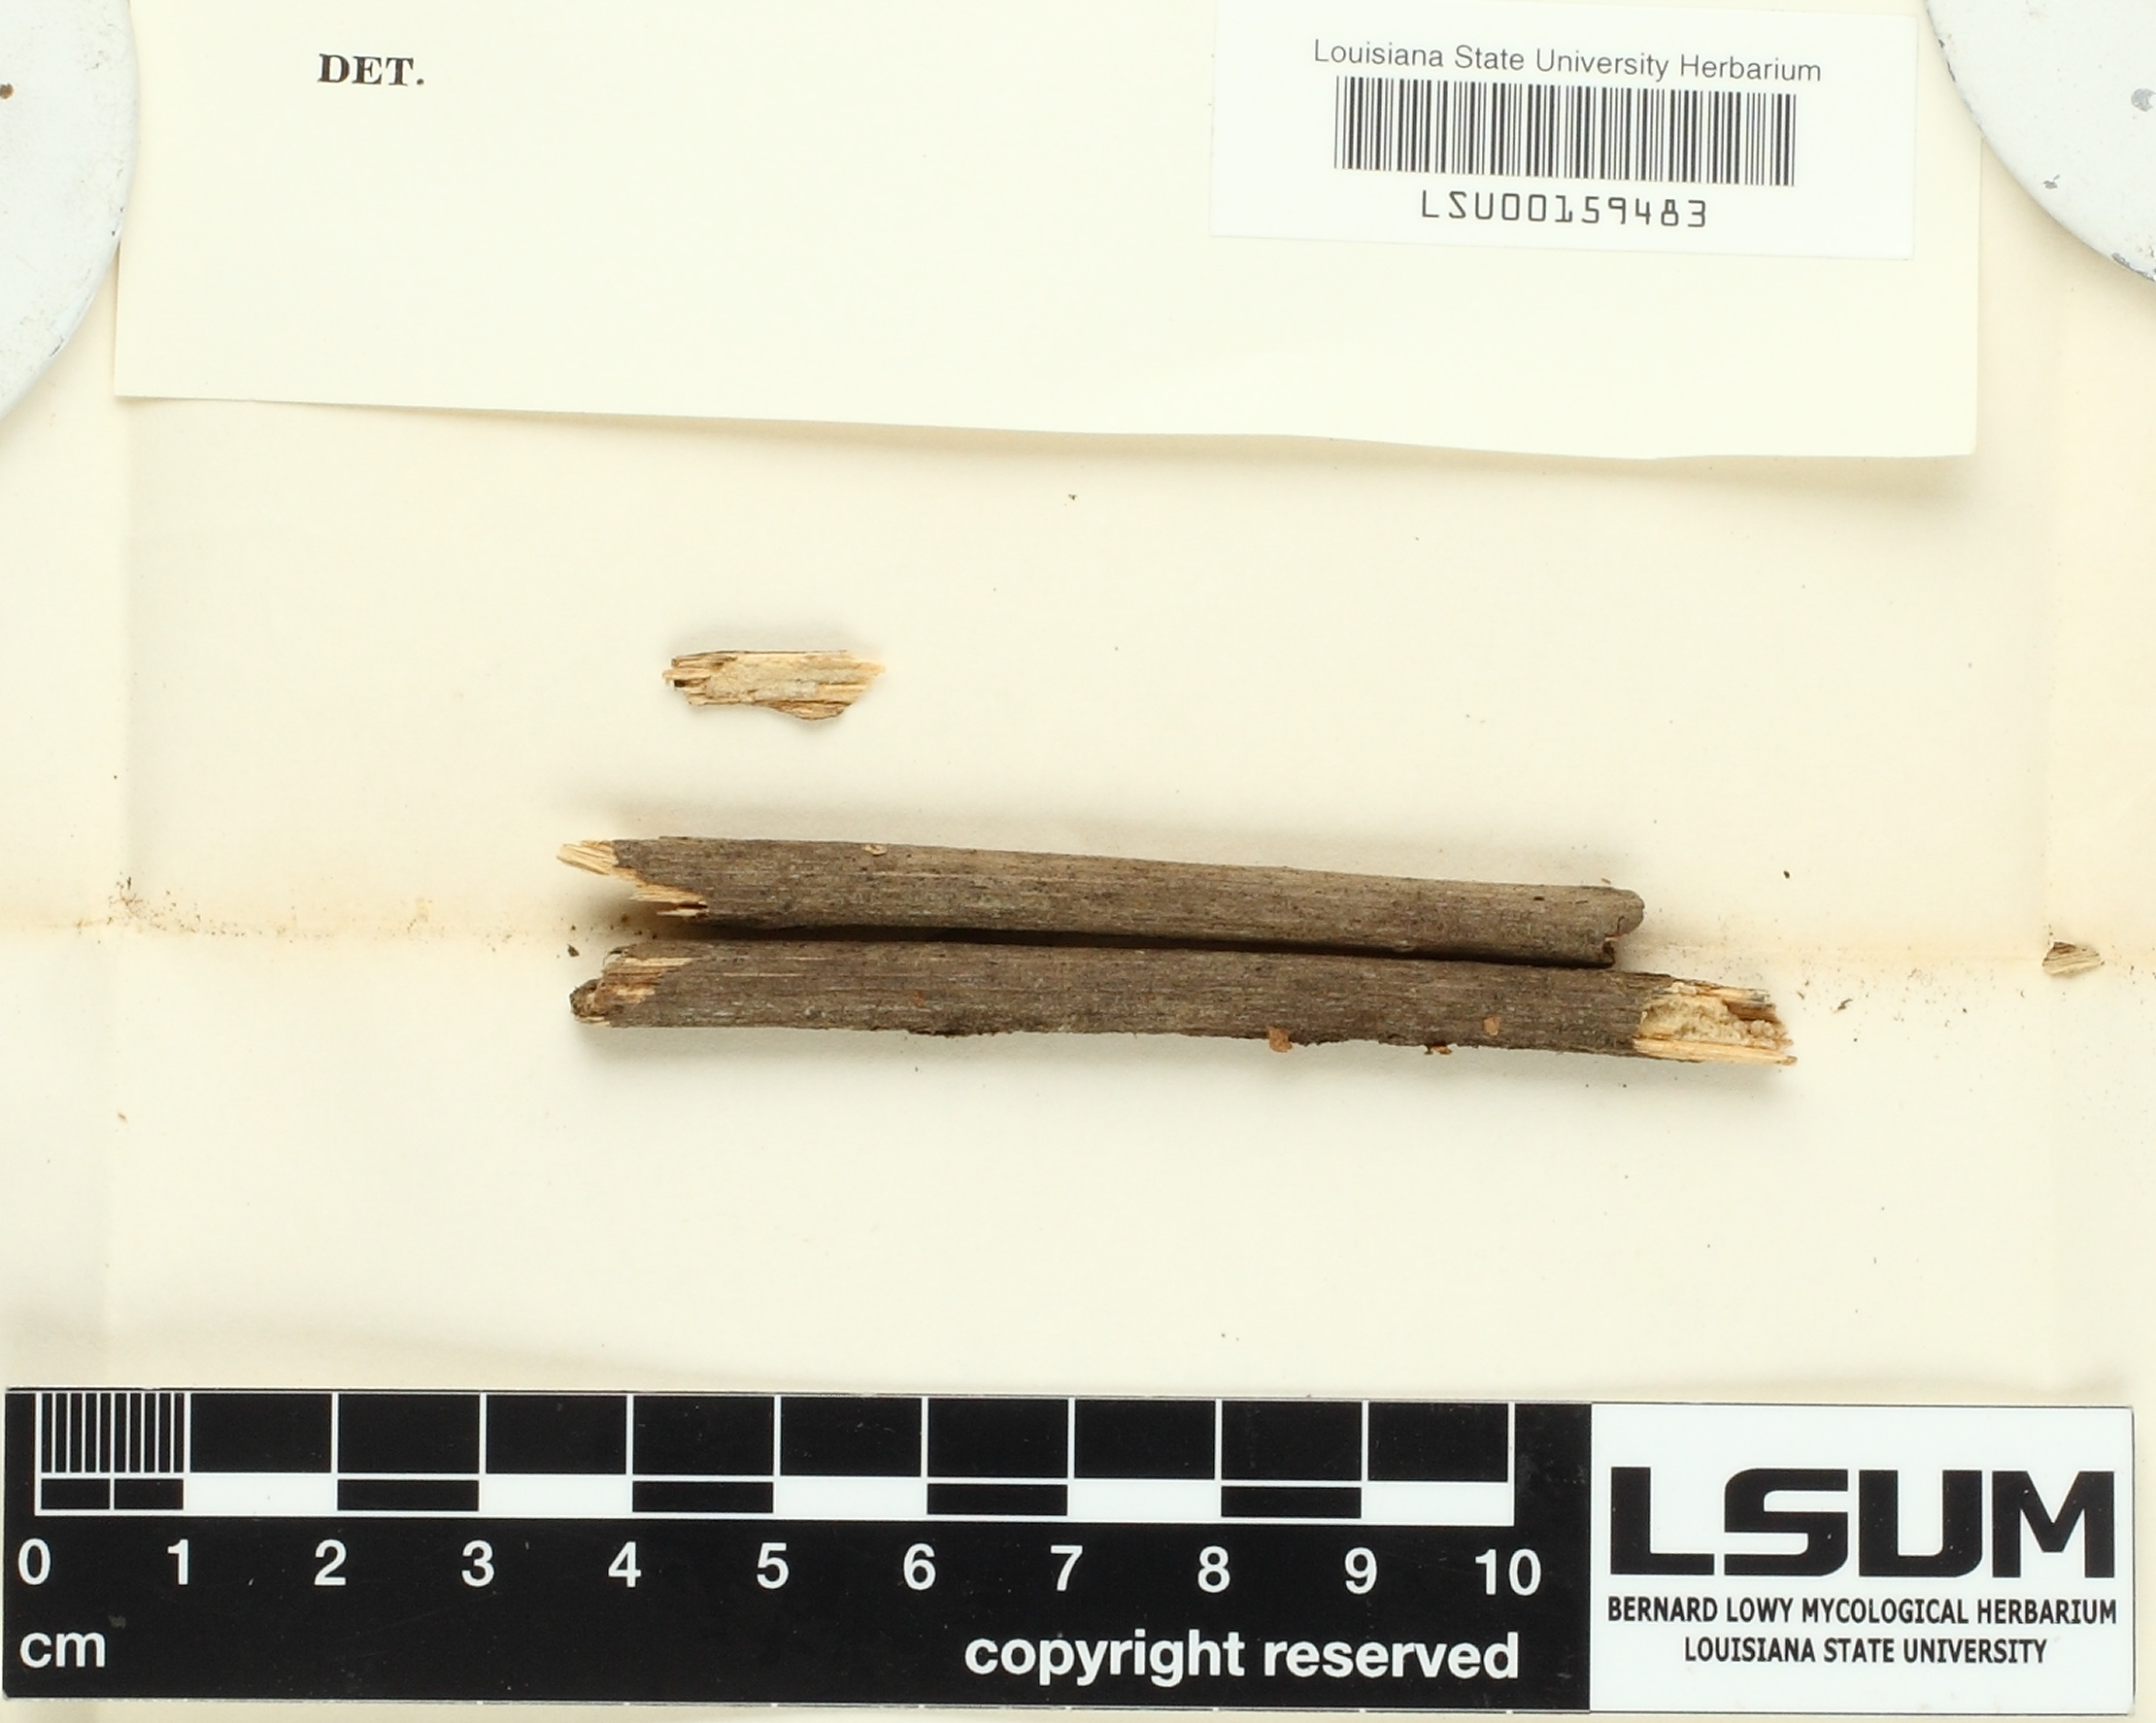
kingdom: Fungi
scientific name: Fungi
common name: Fungi
